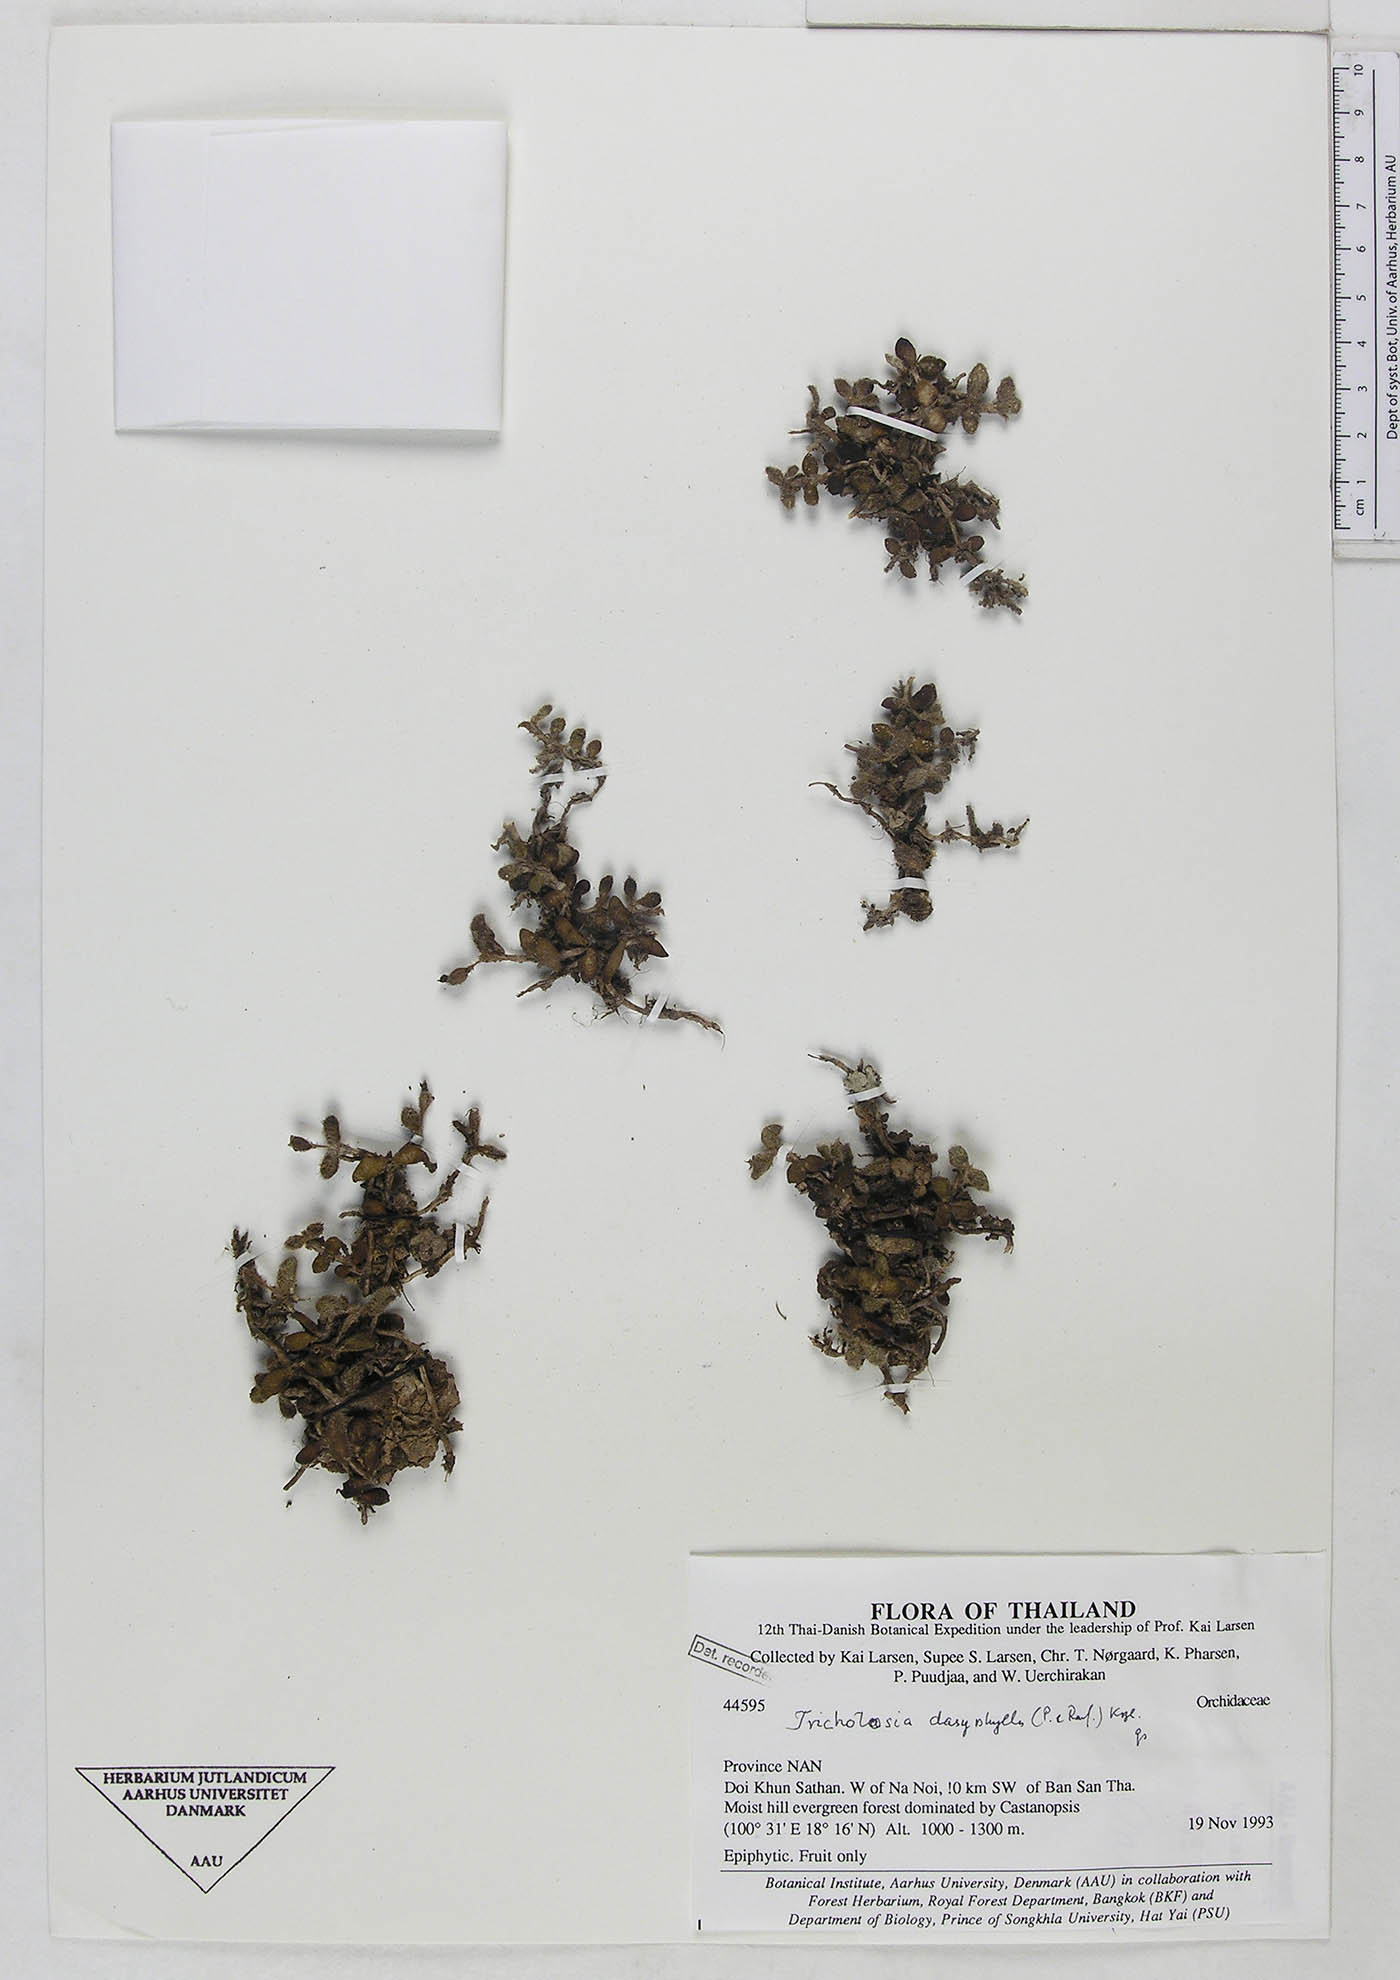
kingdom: Plantae
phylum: Tracheophyta
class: Liliopsida
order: Asparagales
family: Orchidaceae
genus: Trichotosia
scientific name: Trichotosia dasyphylla
